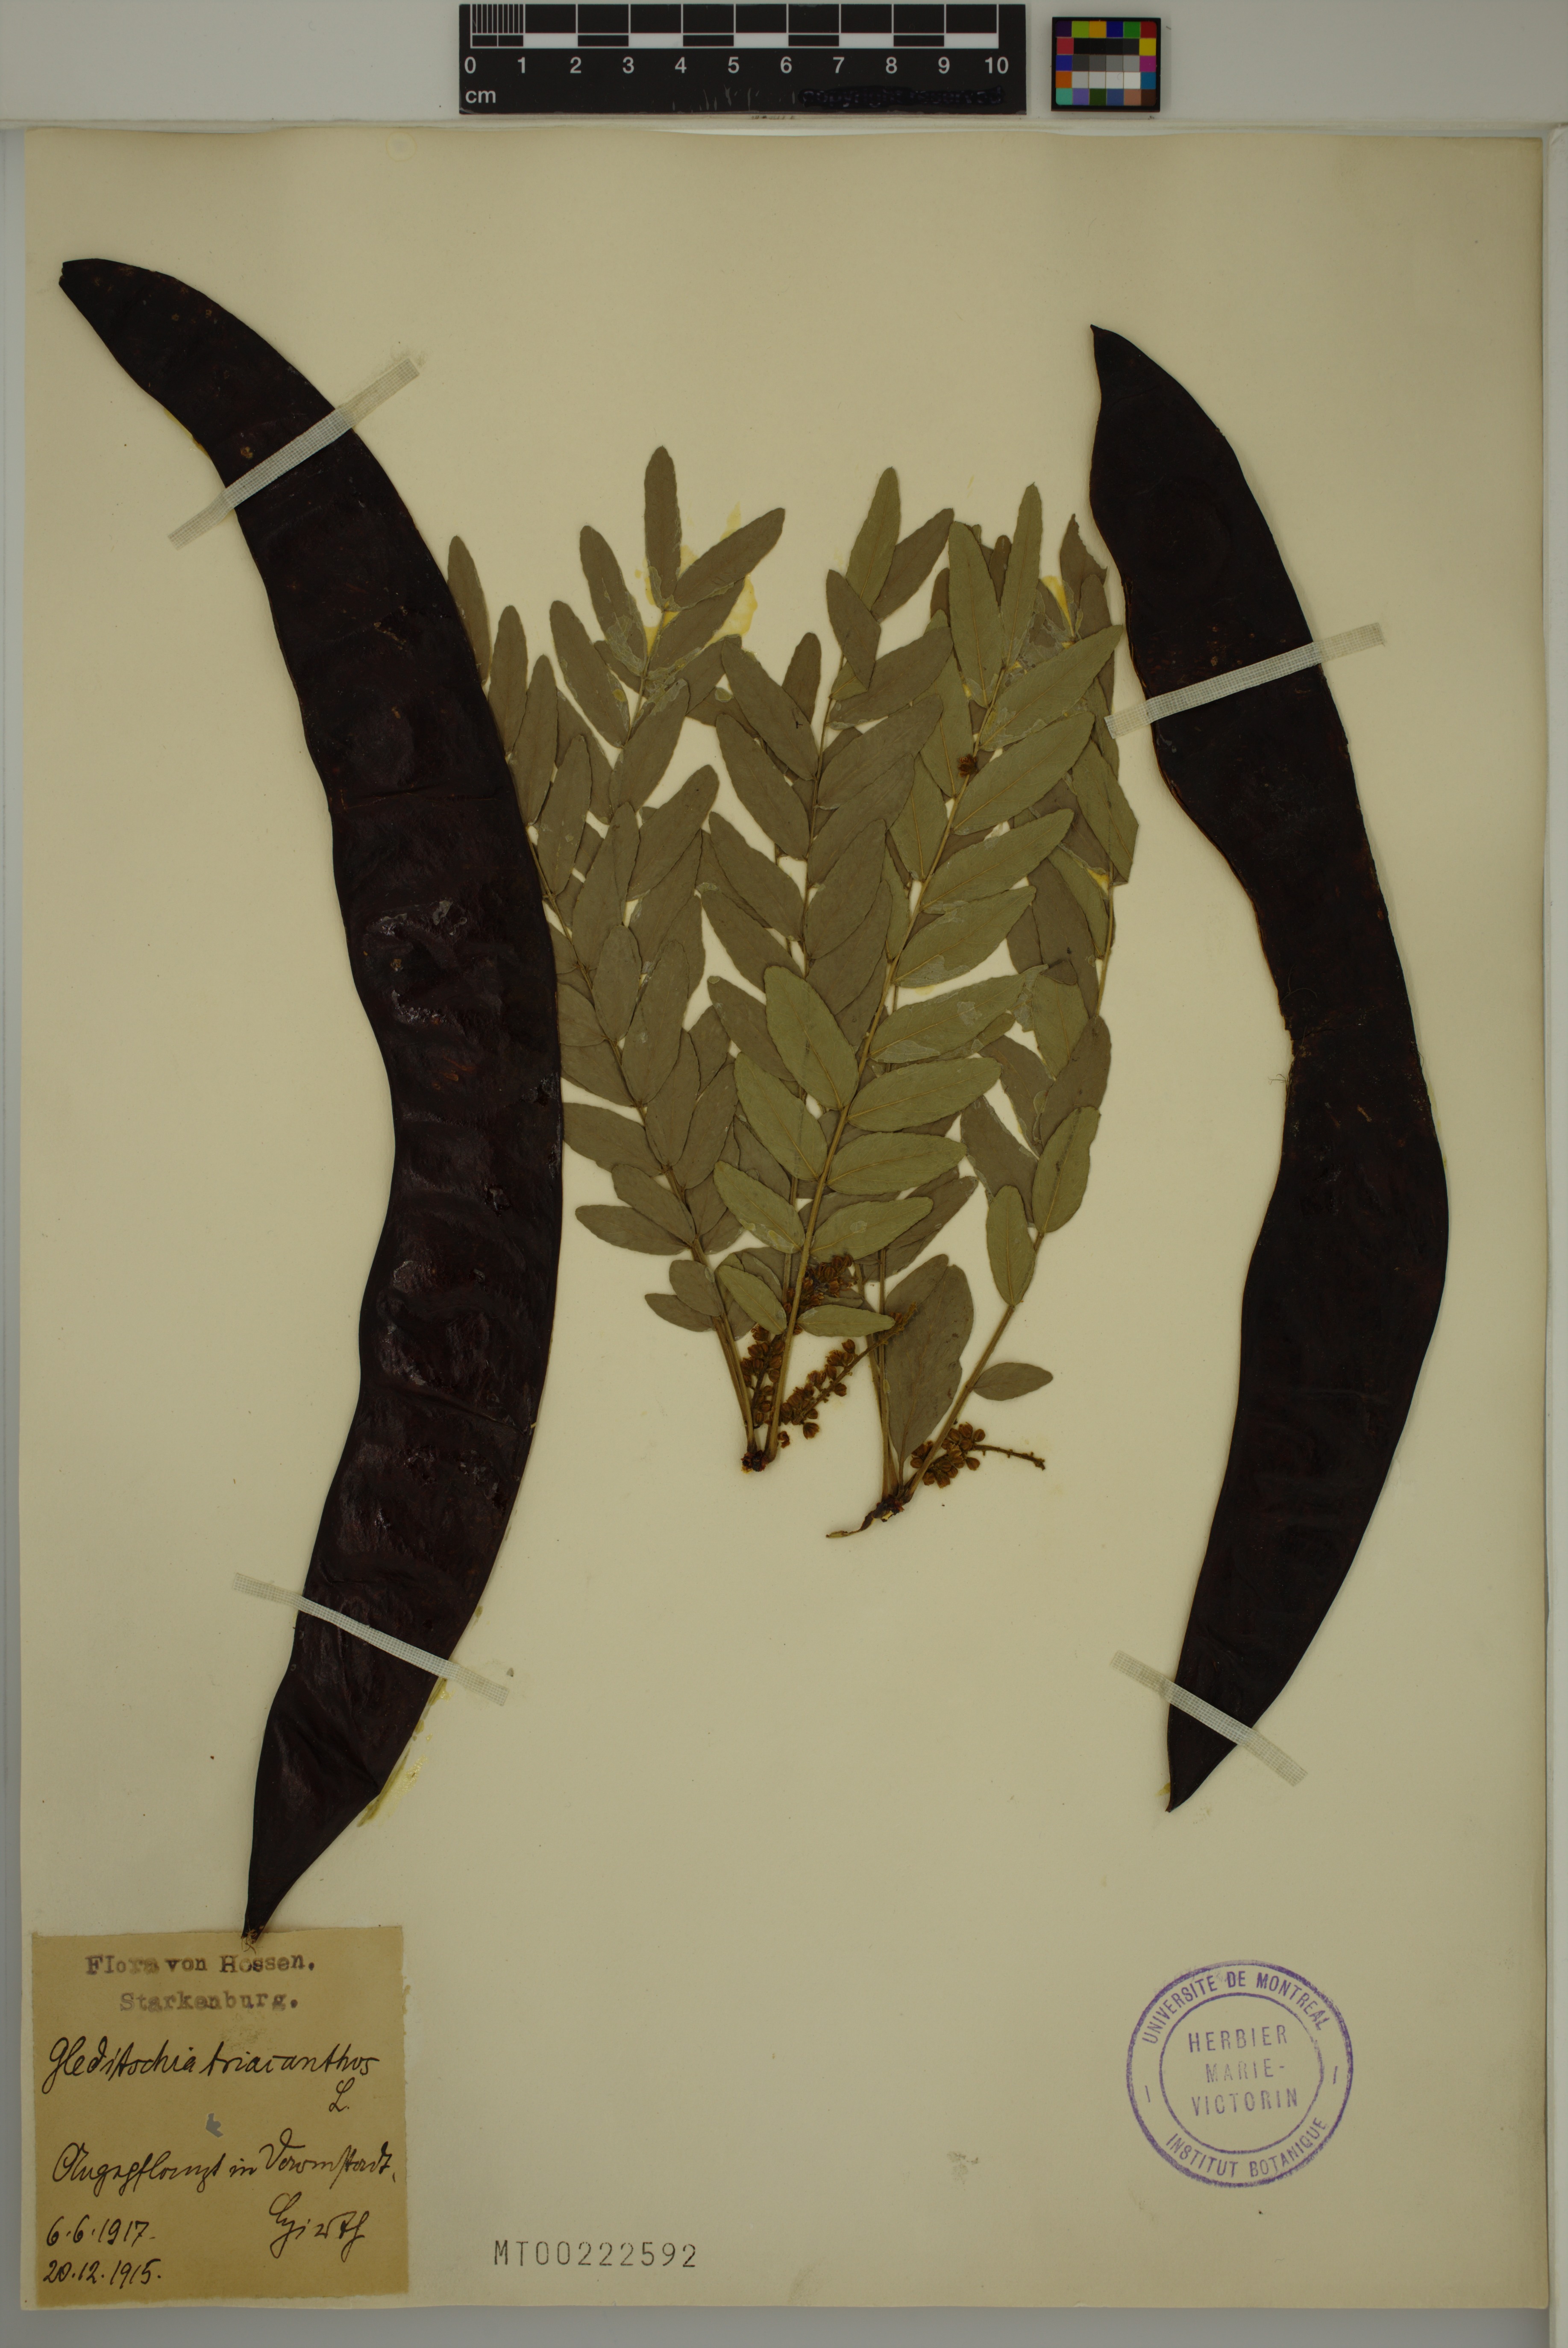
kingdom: Plantae
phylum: Tracheophyta
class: Magnoliopsida
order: Fabales
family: Fabaceae
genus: Gleditsia
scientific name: Gleditsia triacanthos
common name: Common honeylocust
